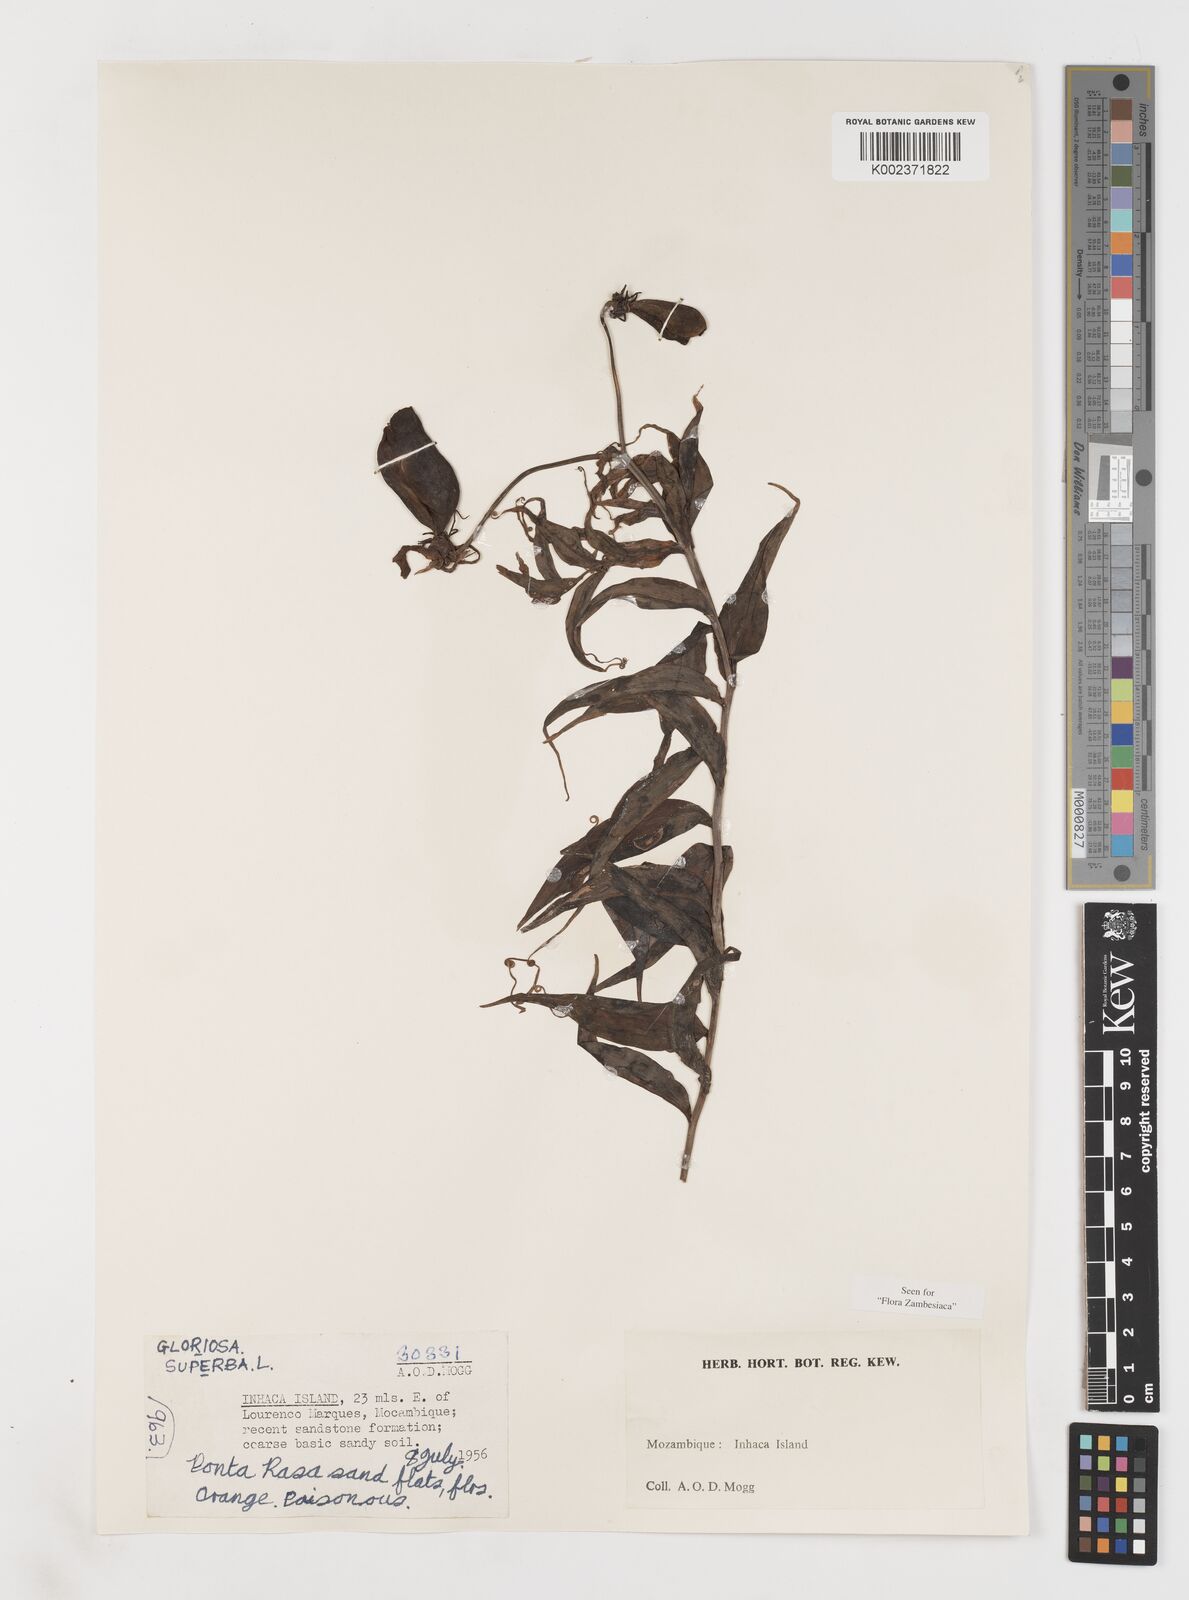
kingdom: Plantae
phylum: Tracheophyta
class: Liliopsida
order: Liliales
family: Colchicaceae
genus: Gloriosa
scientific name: Gloriosa simplex
